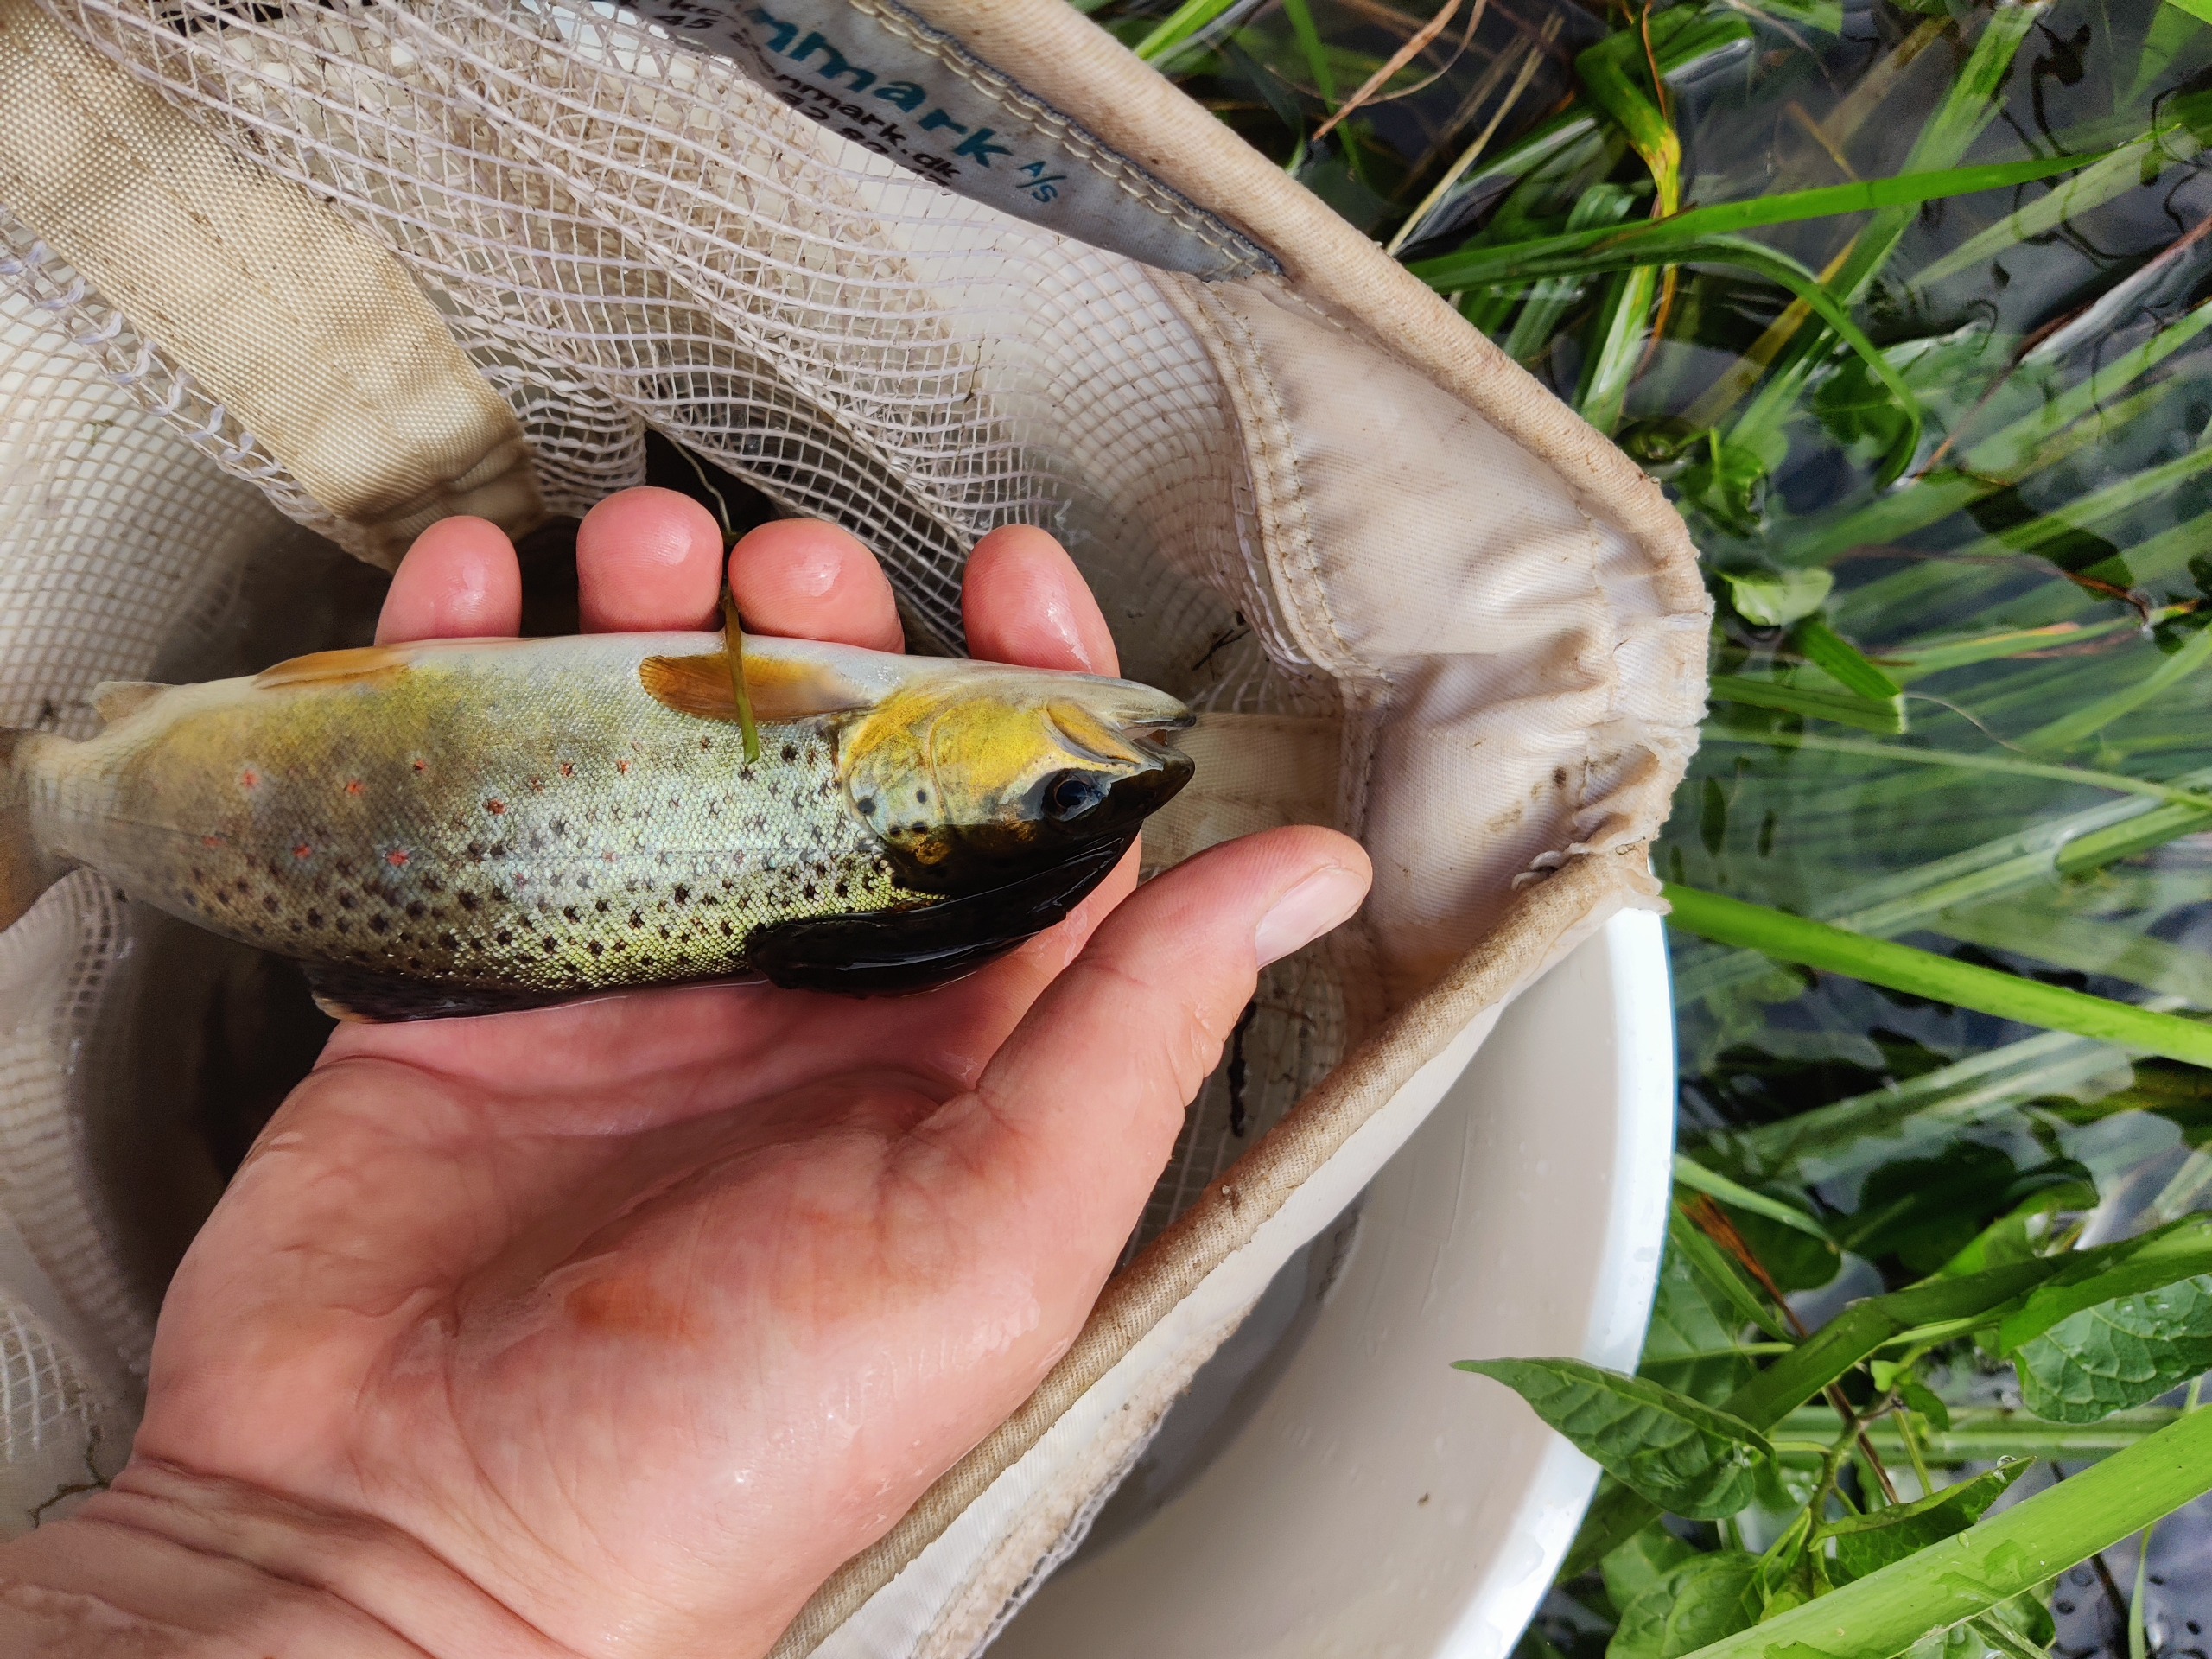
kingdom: Animalia
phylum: Chordata
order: Salmoniformes
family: Salmonidae
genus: Salmo
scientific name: Salmo trutta
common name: Ørred
